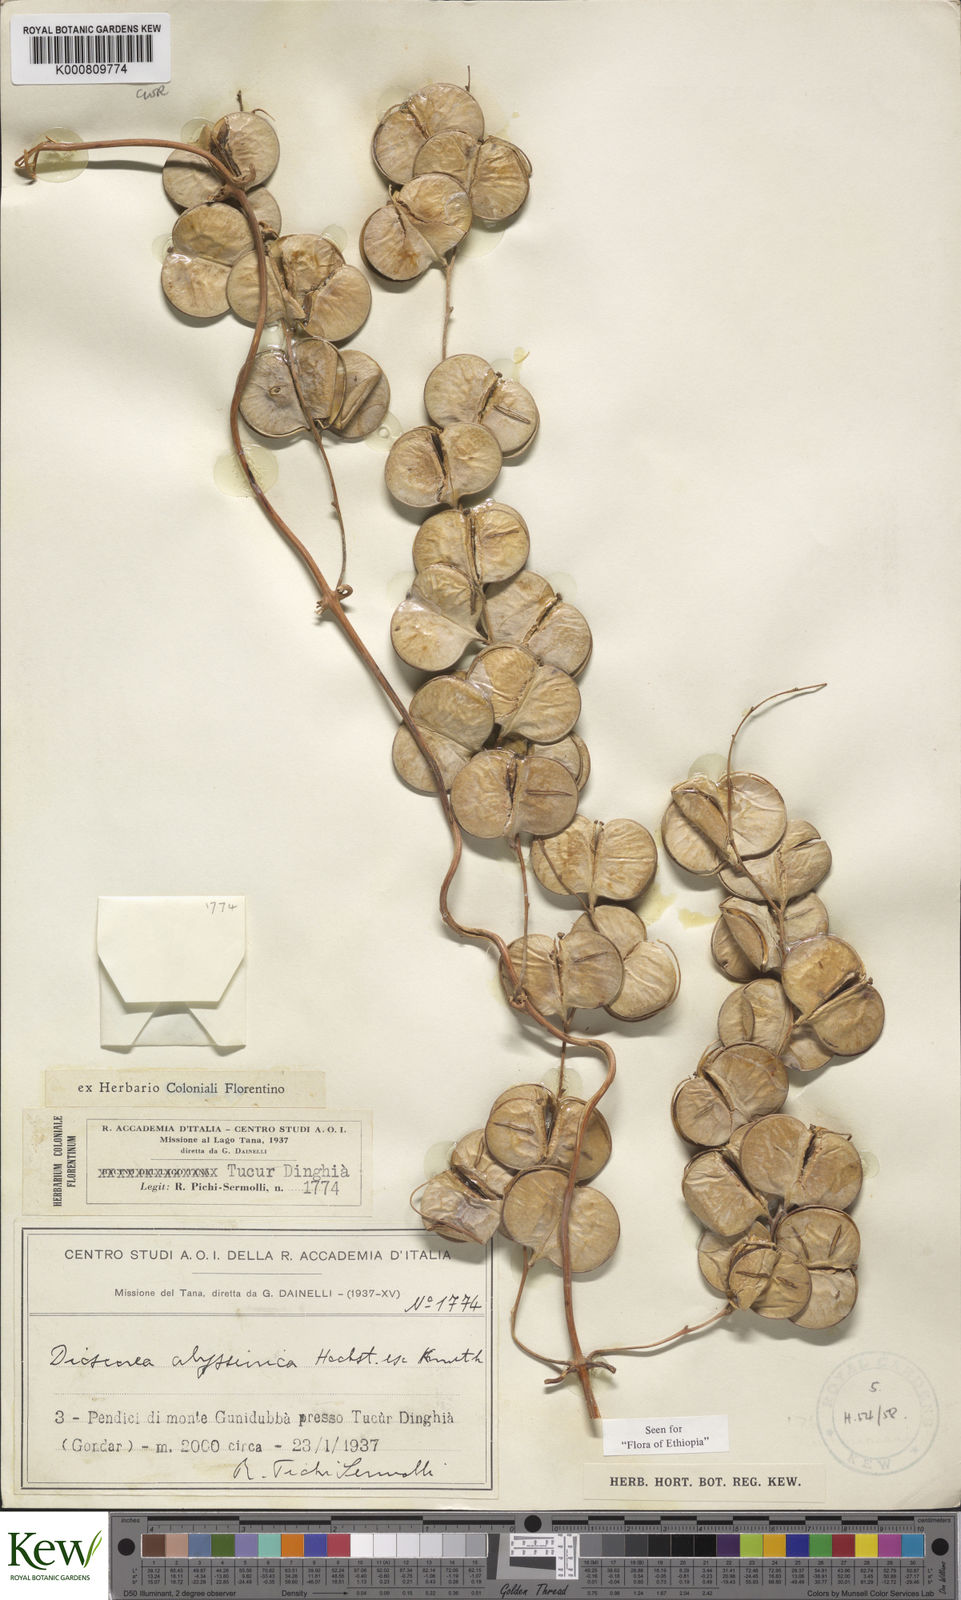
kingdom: Plantae
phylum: Tracheophyta
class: Liliopsida
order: Dioscoreales
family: Dioscoreaceae
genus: Dioscorea
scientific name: Dioscorea abyssinica
